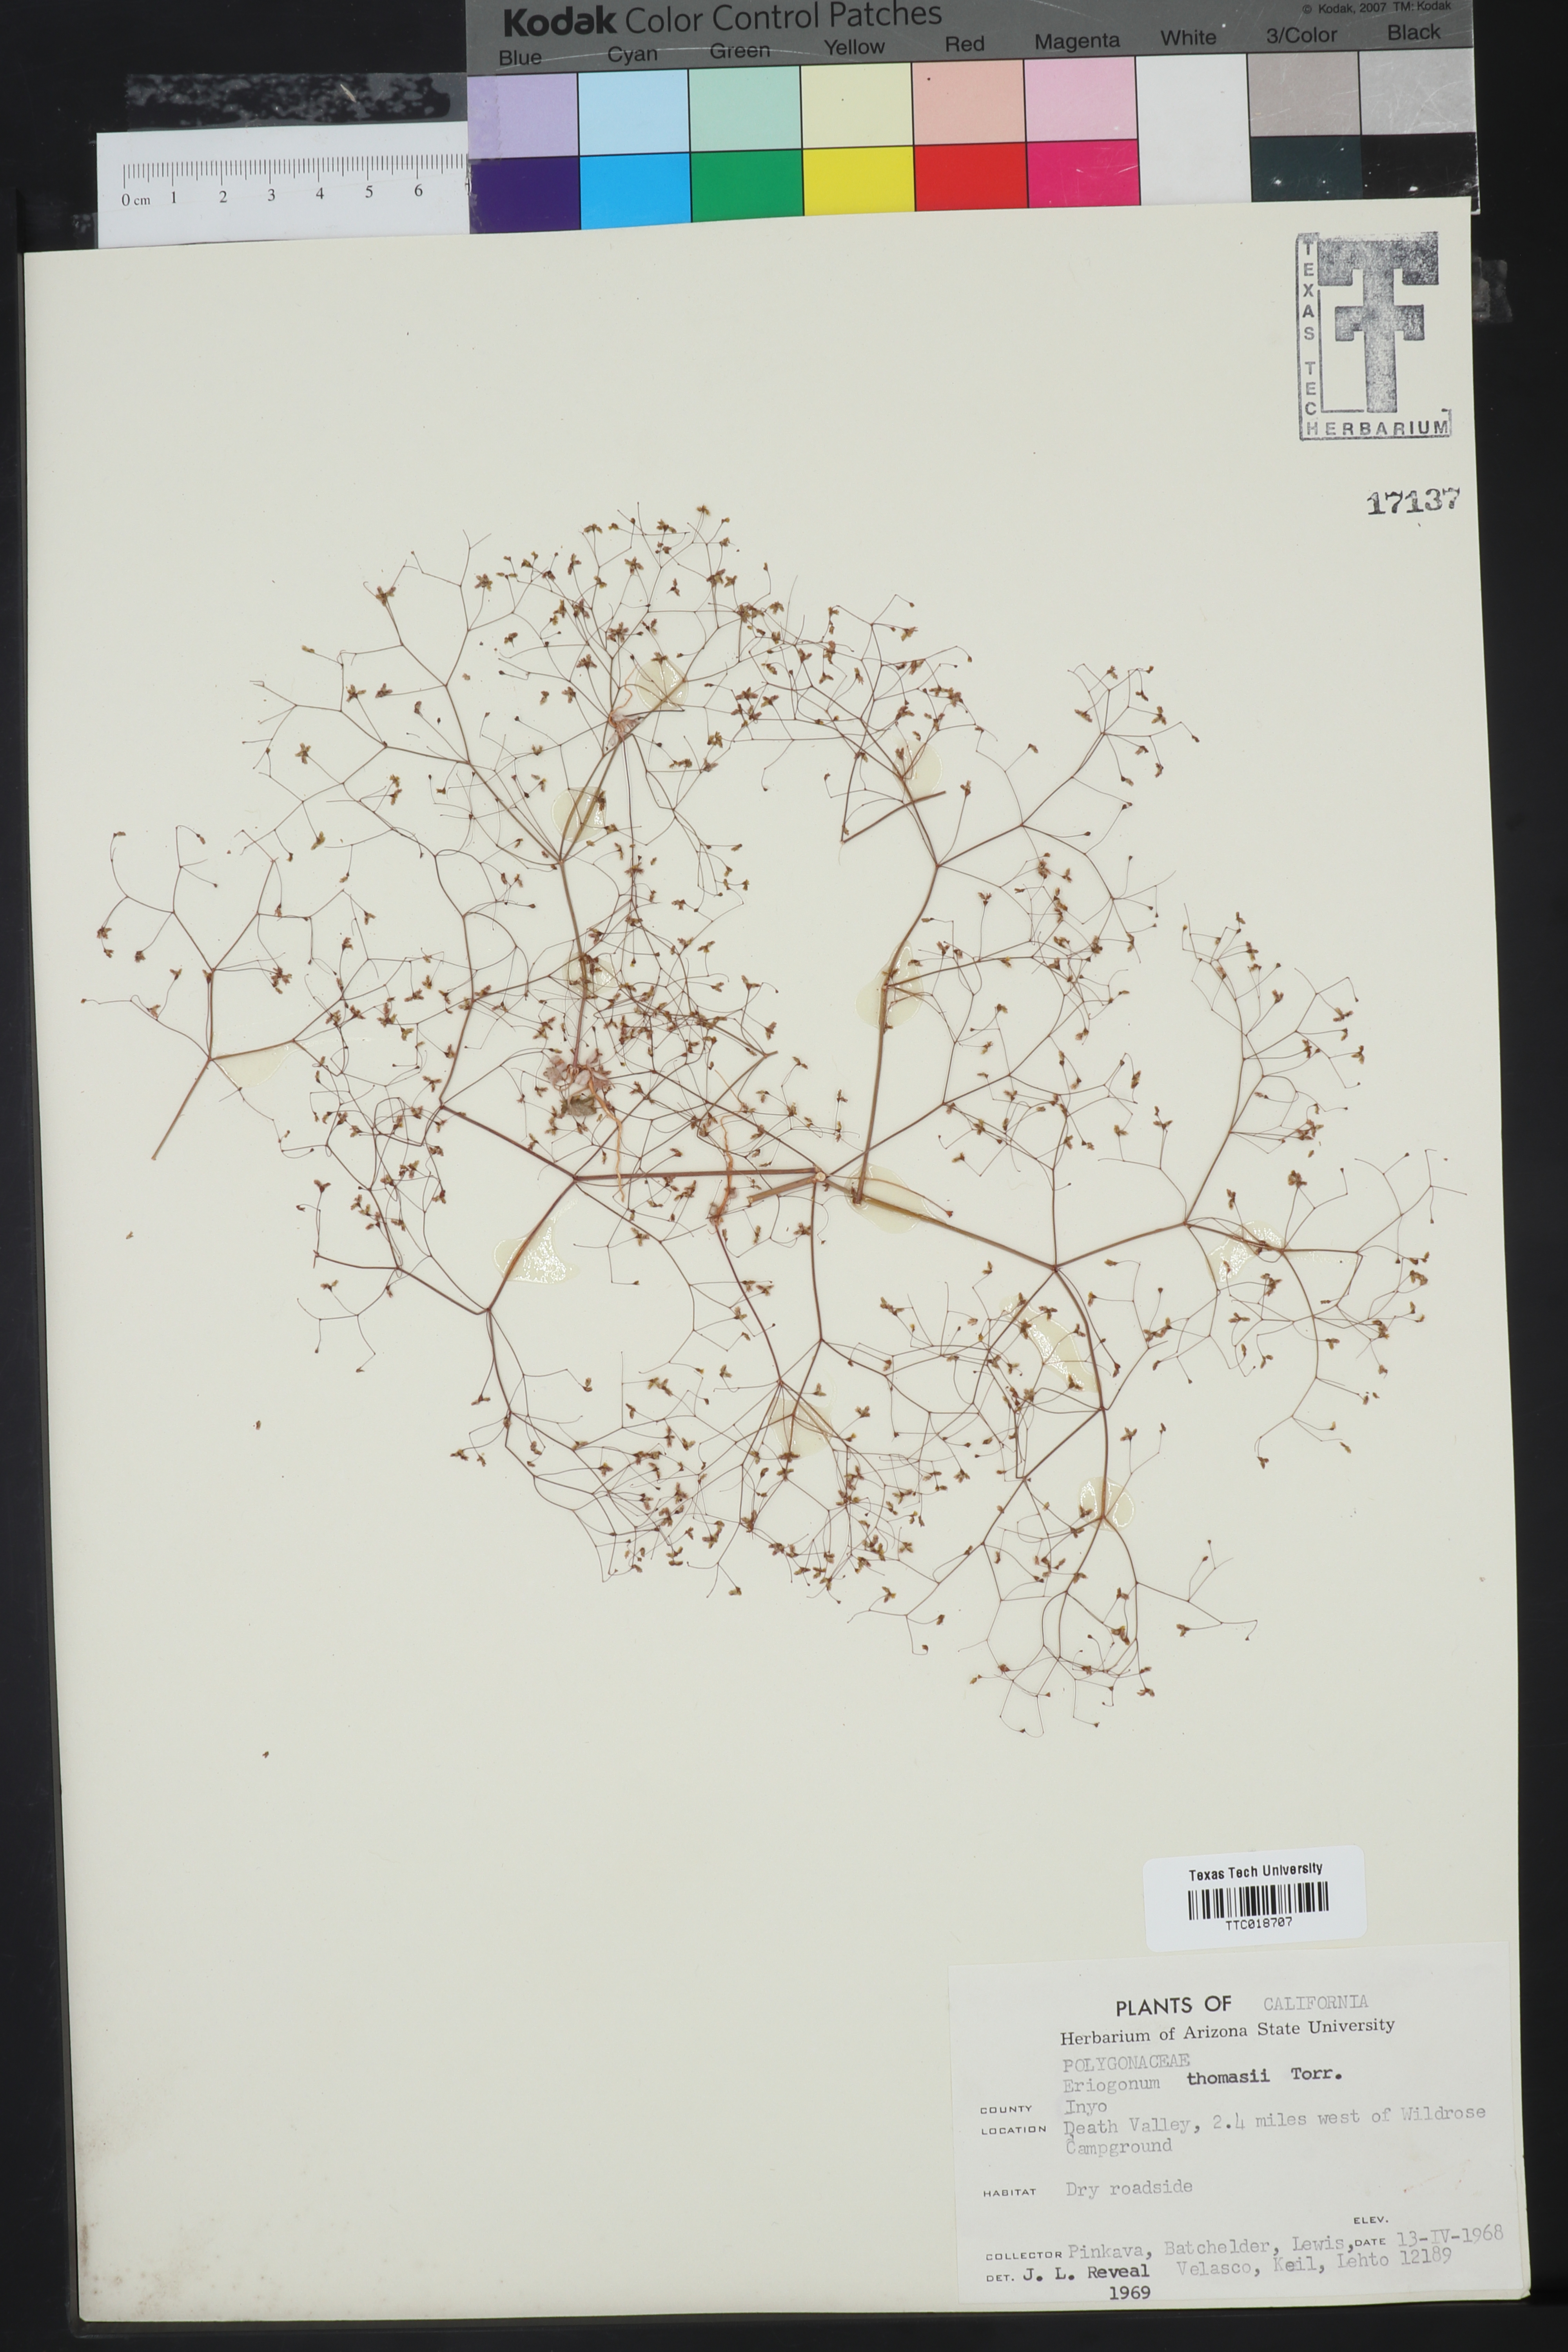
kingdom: Plantae
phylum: Tracheophyta
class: Magnoliopsida
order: Caryophyllales
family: Polygonaceae
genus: Eriogonum
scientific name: Eriogonum thomasii
